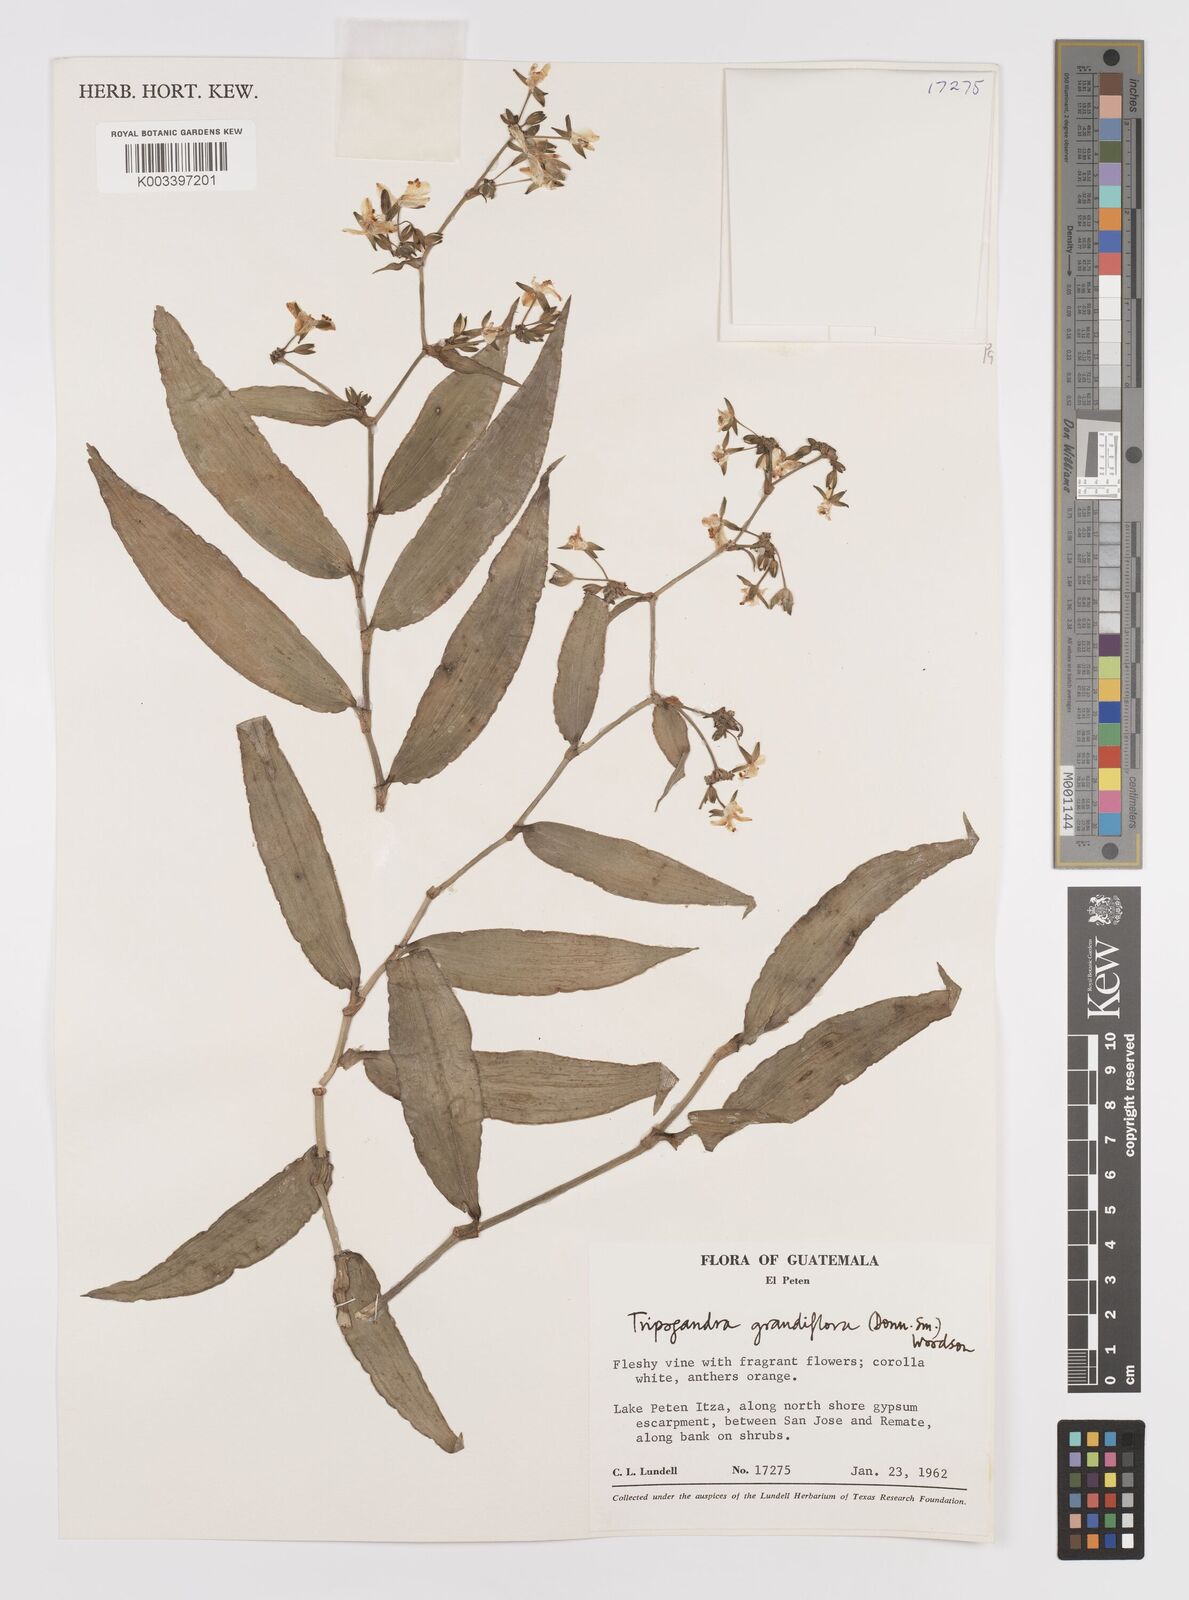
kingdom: Plantae
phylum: Tracheophyta
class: Liliopsida
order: Commelinales
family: Commelinaceae
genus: Callisia
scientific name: Callisia grandiflora
